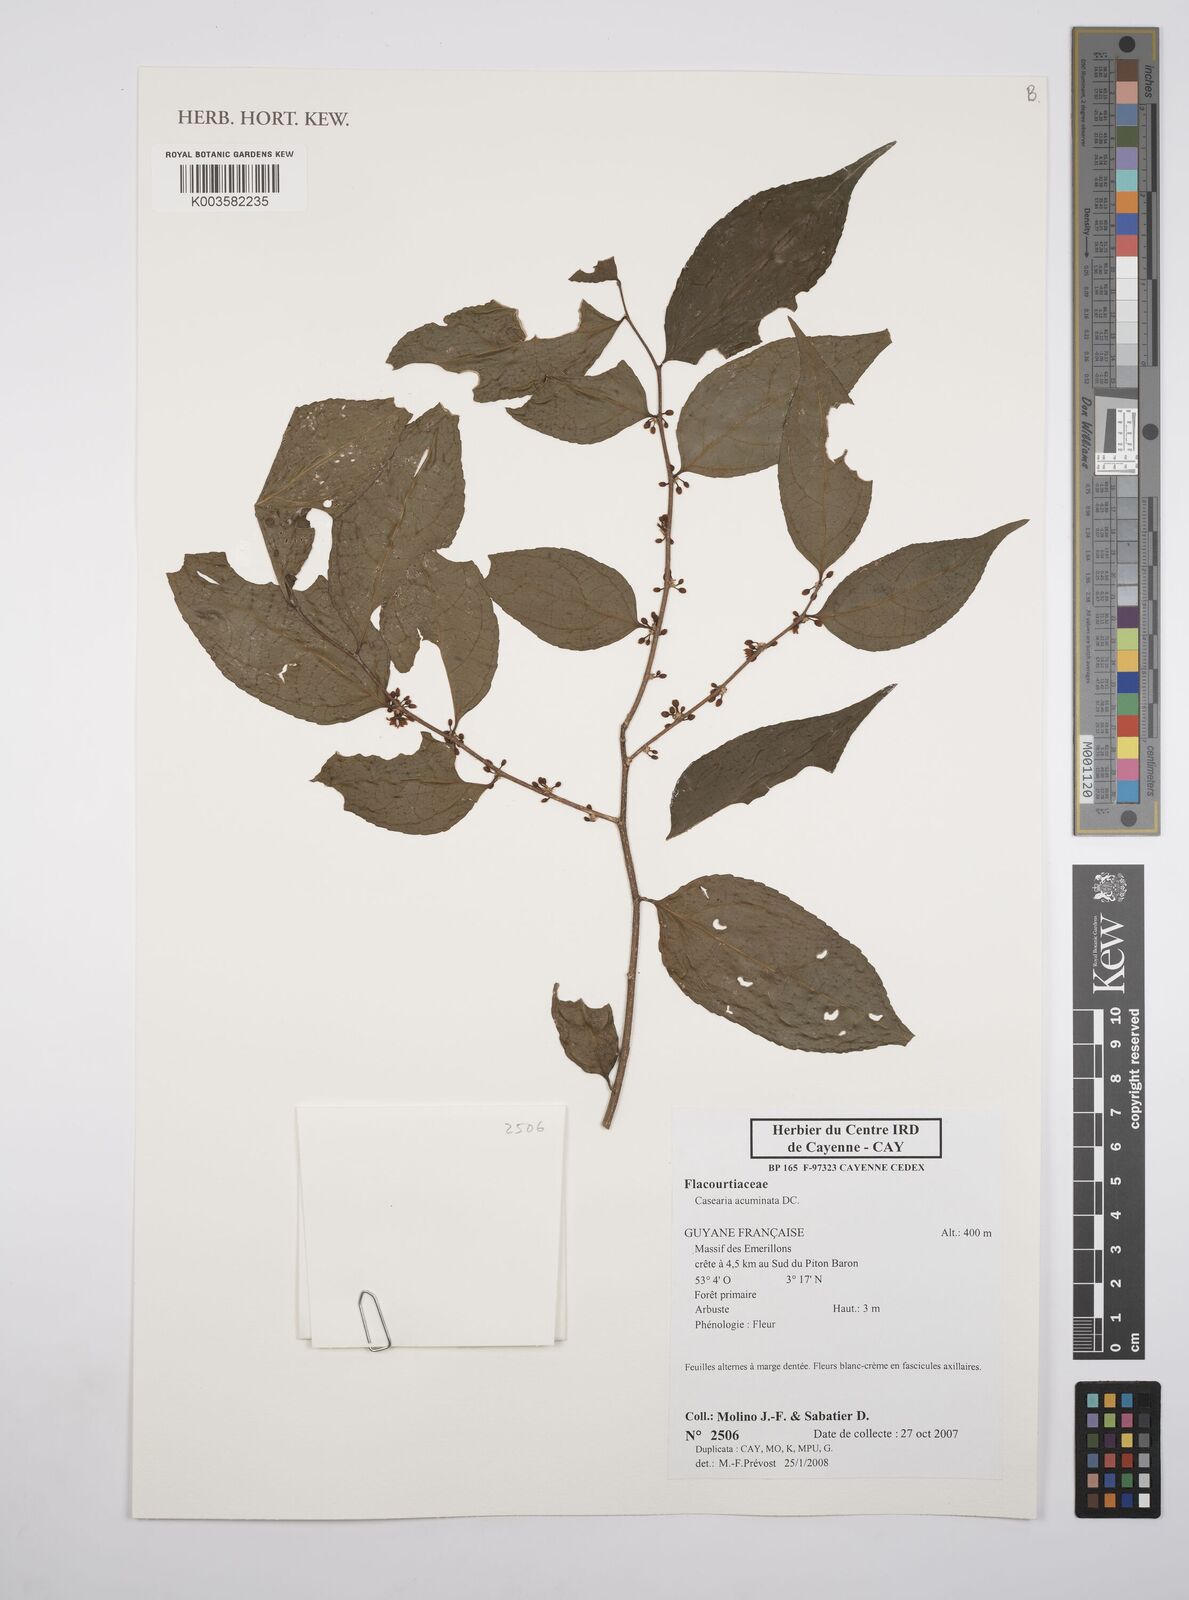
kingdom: Plantae
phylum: Tracheophyta
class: Magnoliopsida
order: Malpighiales
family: Salicaceae
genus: Casearia
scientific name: Casearia acuminata
